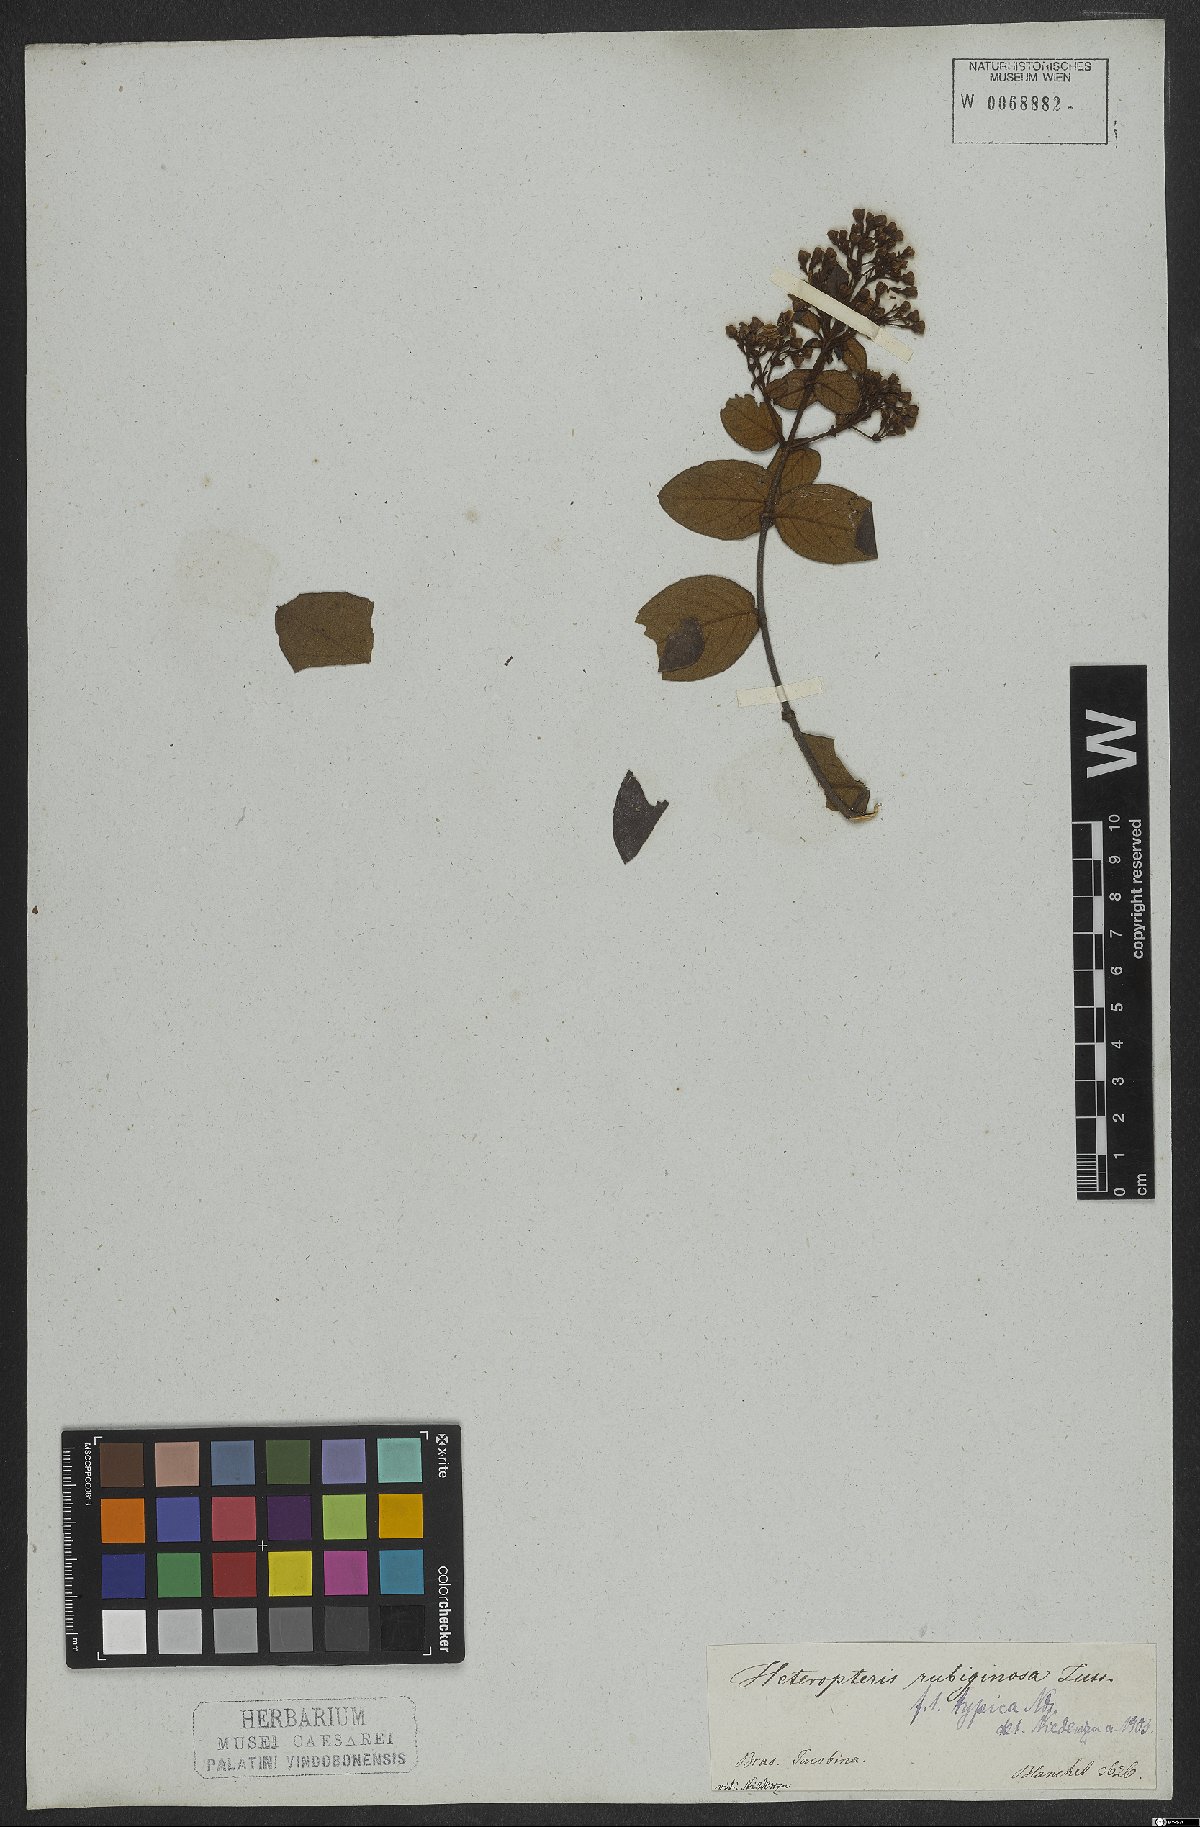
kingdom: Plantae
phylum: Tracheophyta
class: Magnoliopsida
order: Malpighiales
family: Malpighiaceae
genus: Heteropterys
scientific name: Heteropterys rubiginosa
